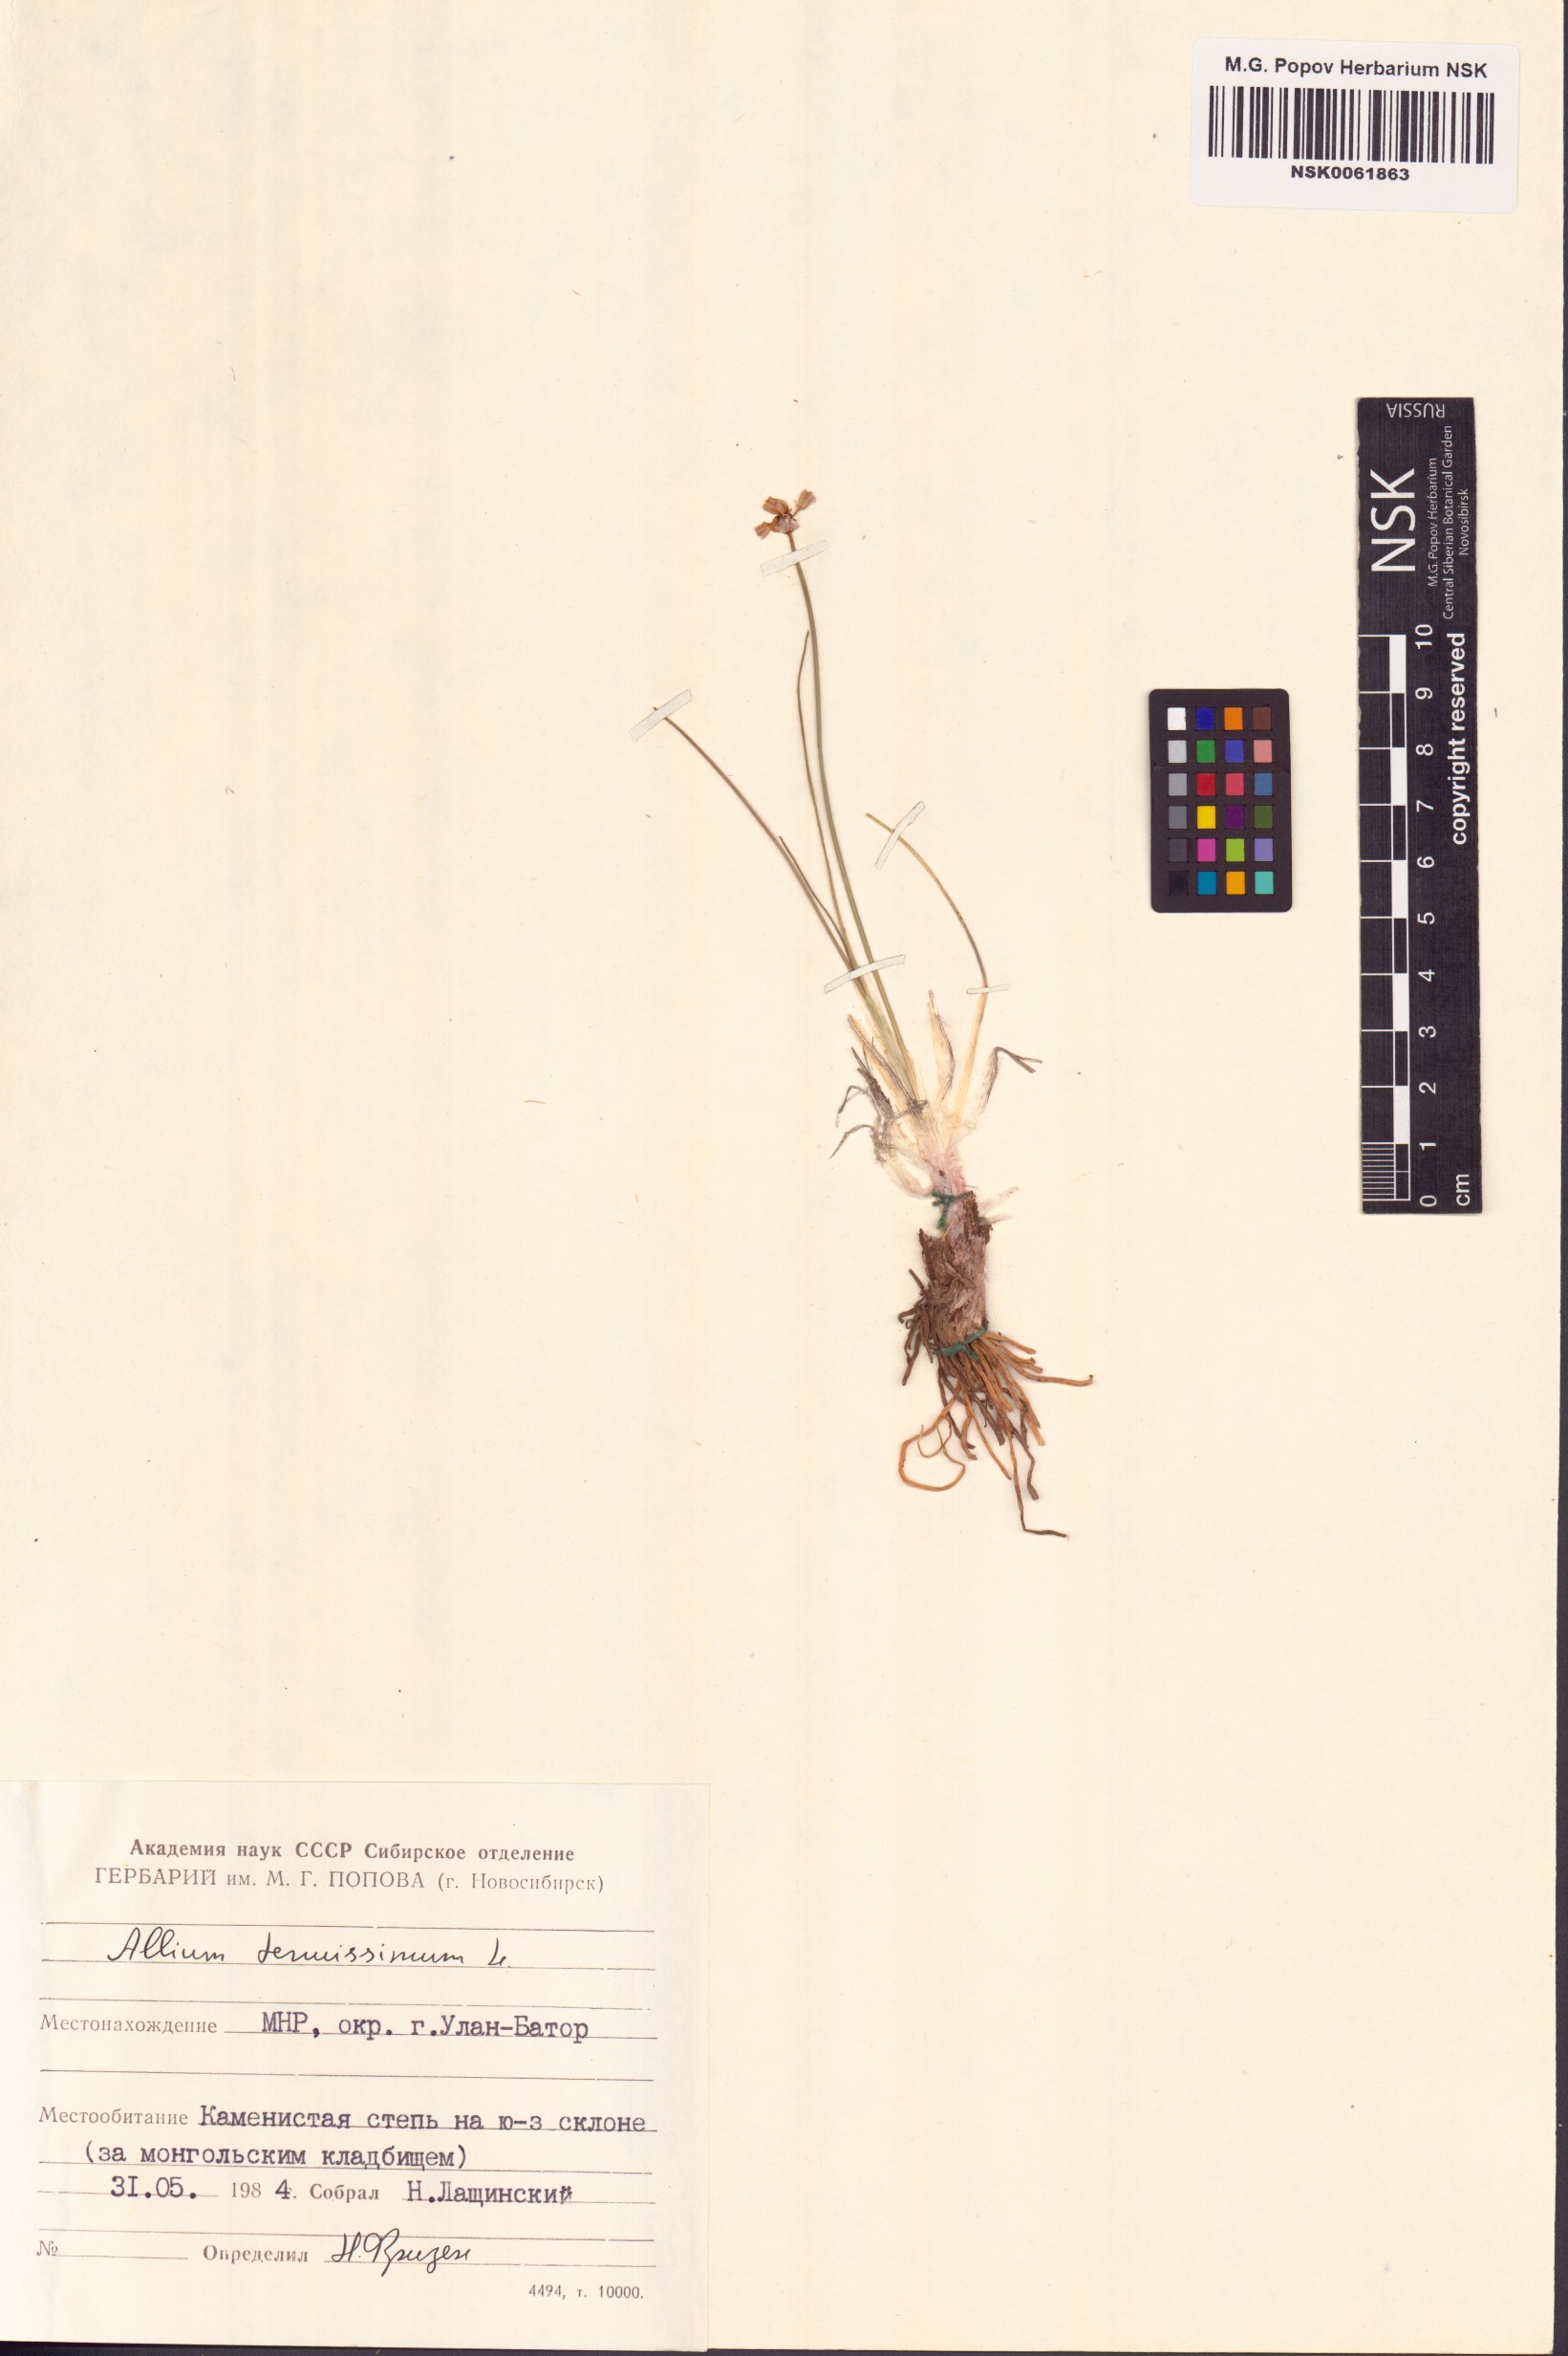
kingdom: Plantae
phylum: Tracheophyta
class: Liliopsida
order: Asparagales
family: Amaryllidaceae
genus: Allium
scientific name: Allium tenuissimum
